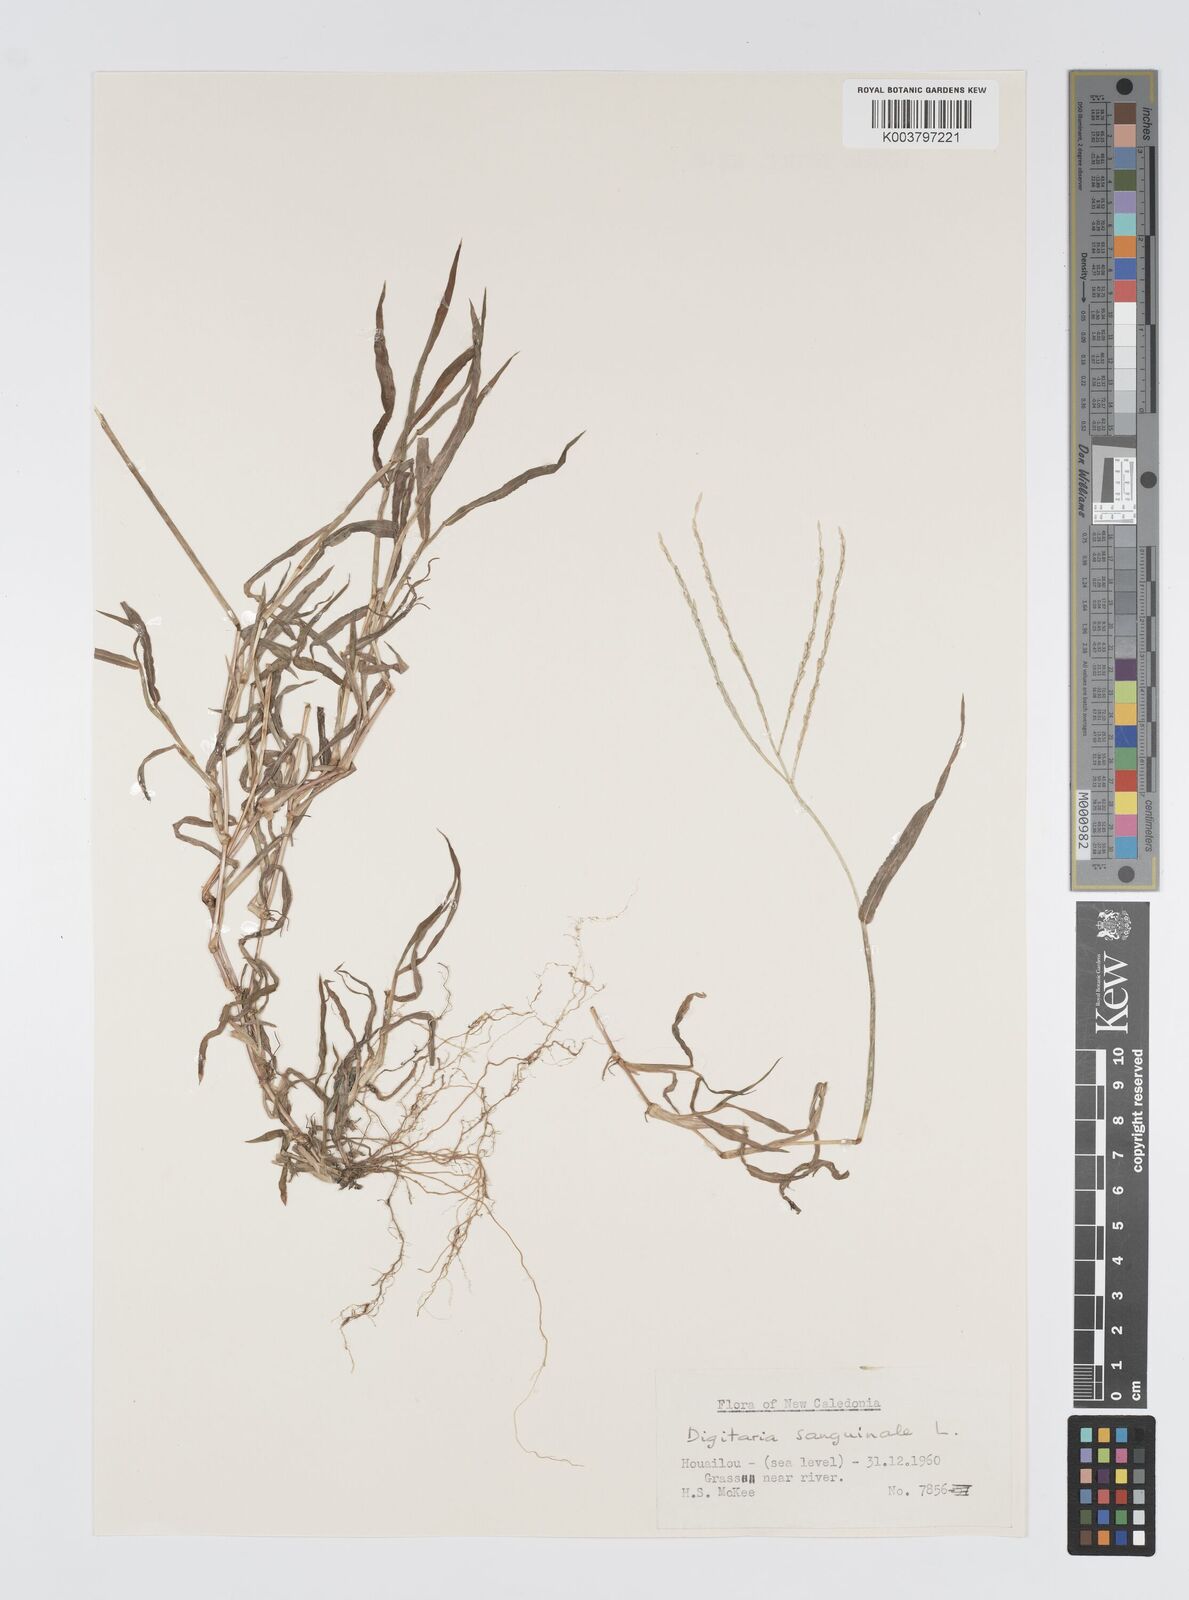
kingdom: Plantae
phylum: Tracheophyta
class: Liliopsida
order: Poales
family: Poaceae
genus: Digitaria
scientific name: Digitaria ciliaris
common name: Tropical finger-grass
